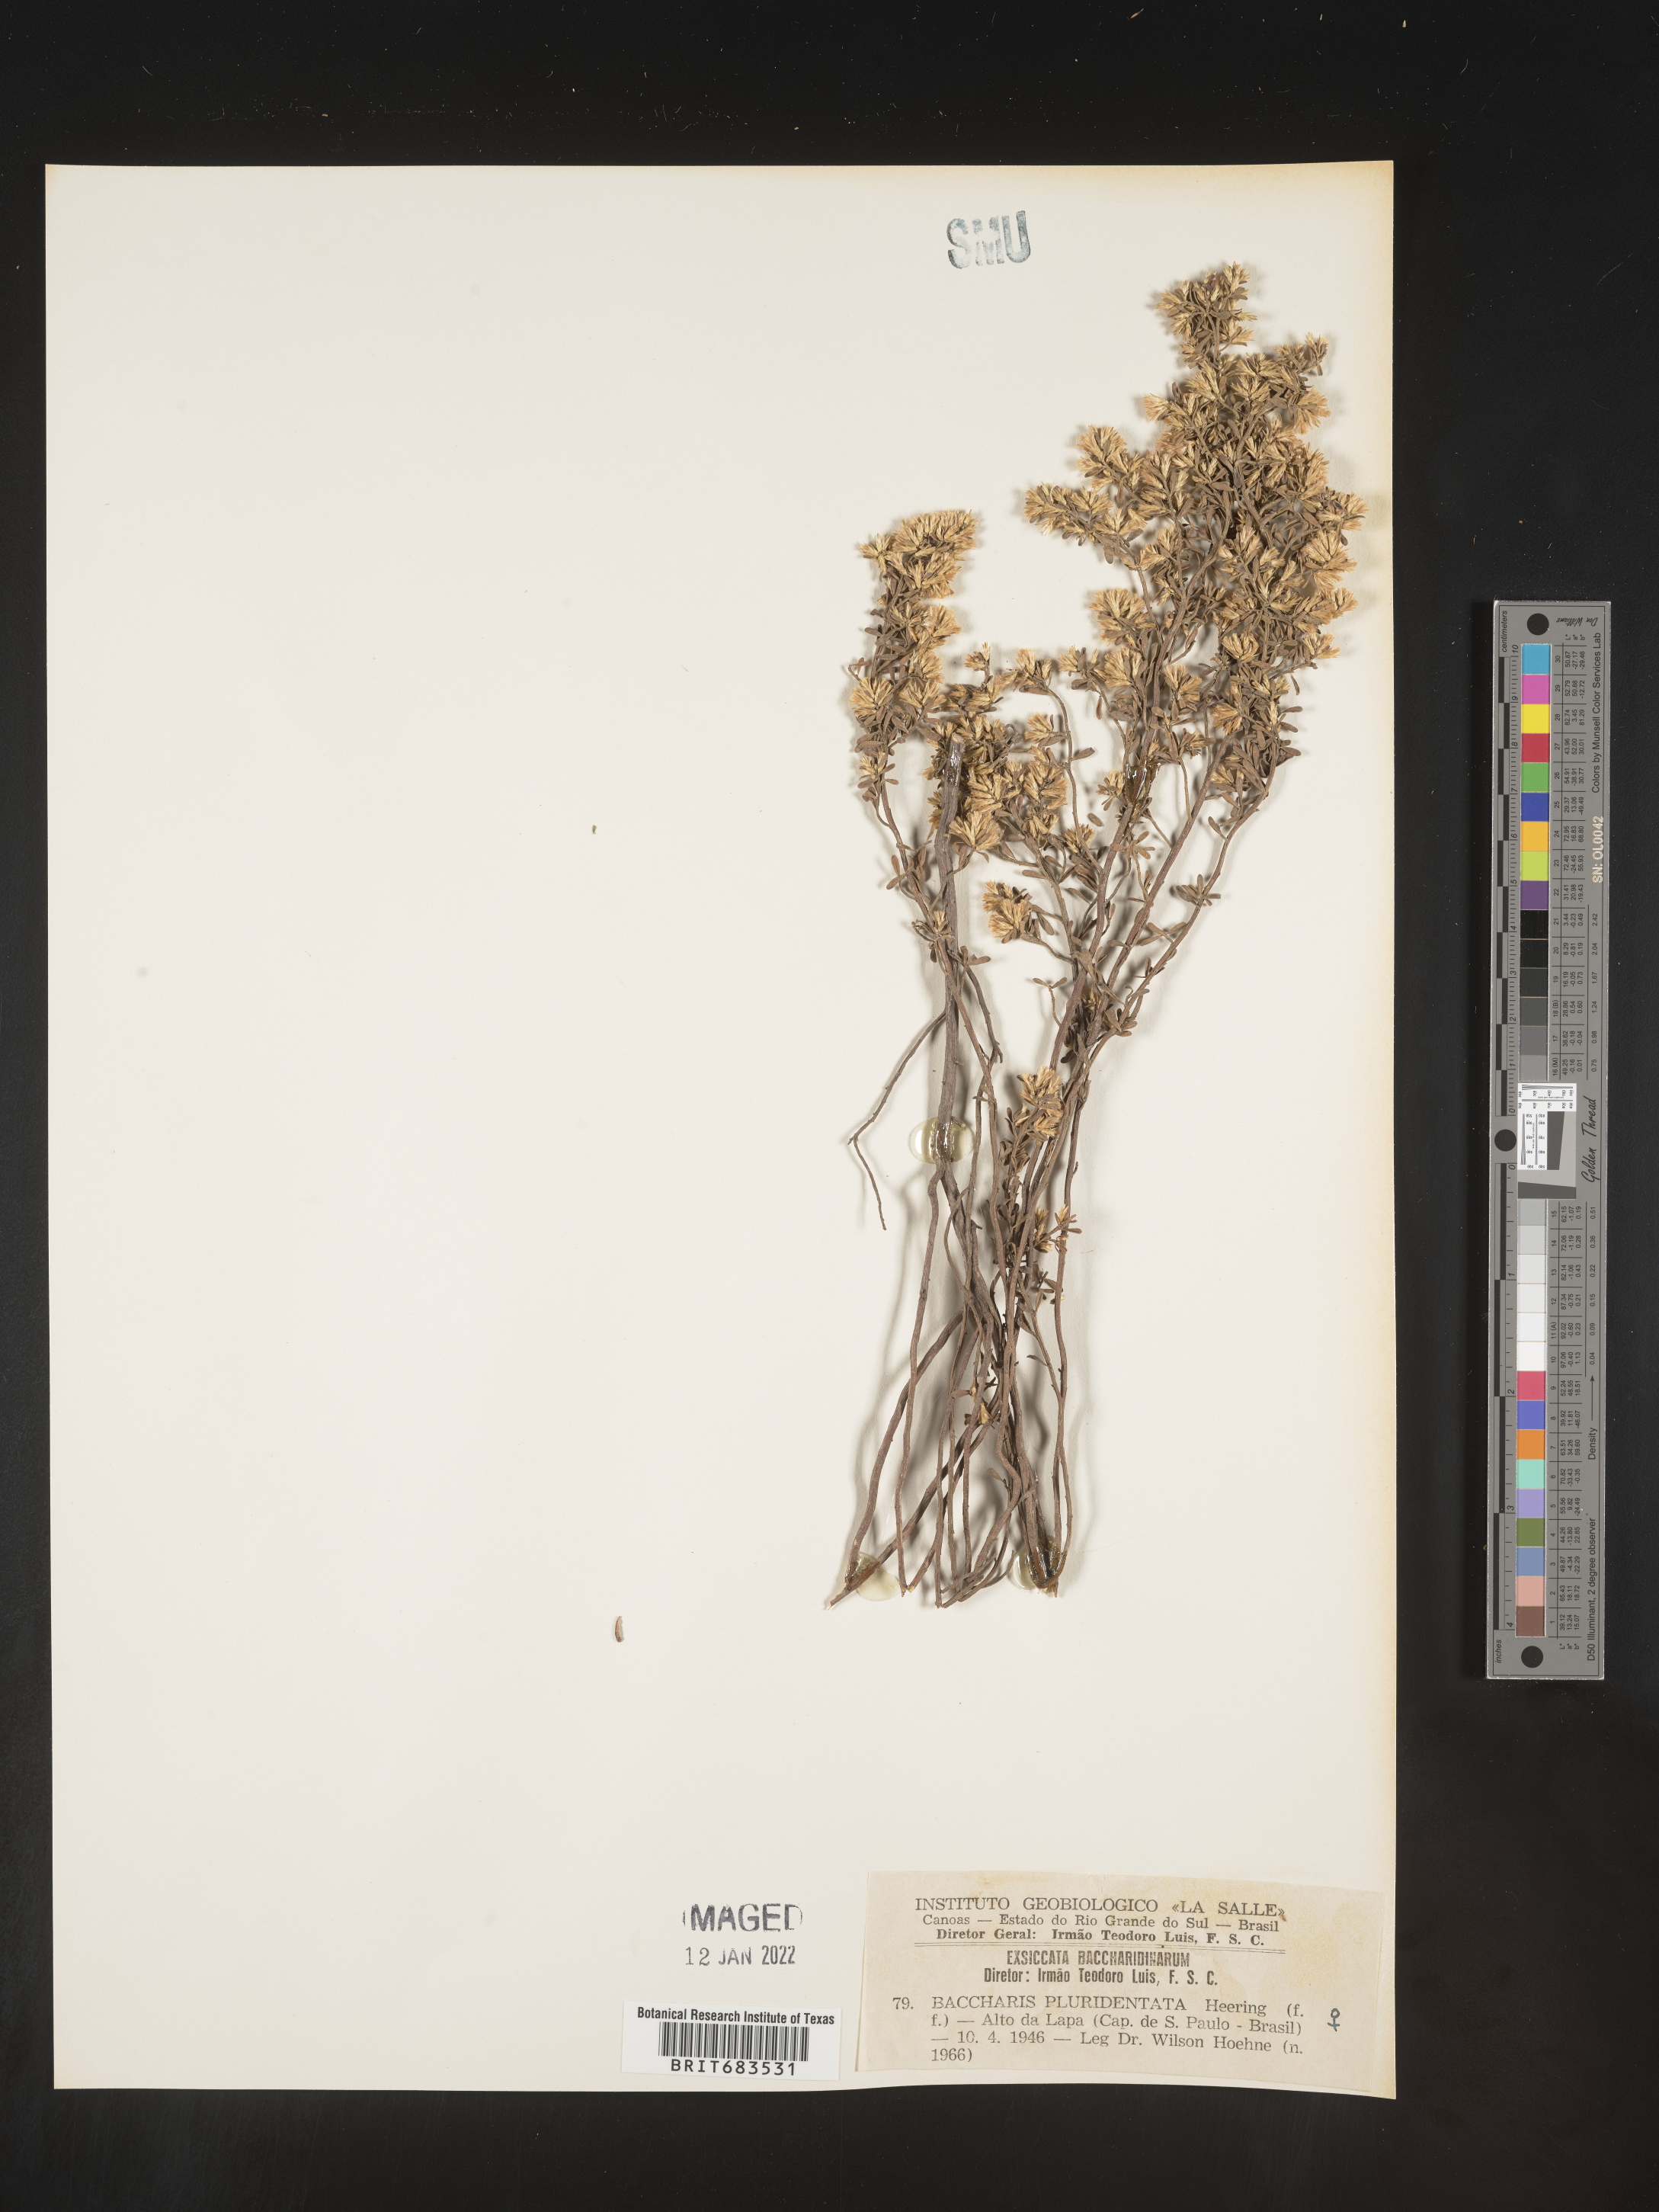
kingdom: Plantae
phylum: Tracheophyta
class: Magnoliopsida
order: Asterales
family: Asteraceae
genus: Baccharis
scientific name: Baccharis
